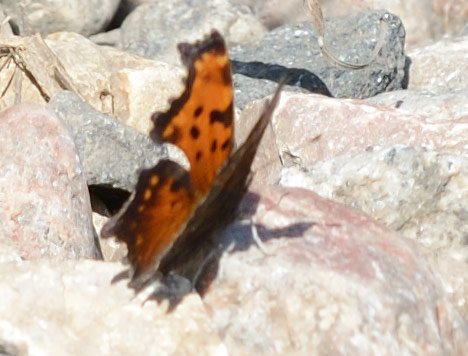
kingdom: Animalia
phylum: Arthropoda
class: Insecta
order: Lepidoptera
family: Nymphalidae
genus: Polygonia
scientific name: Polygonia progne
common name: Gray Comma
